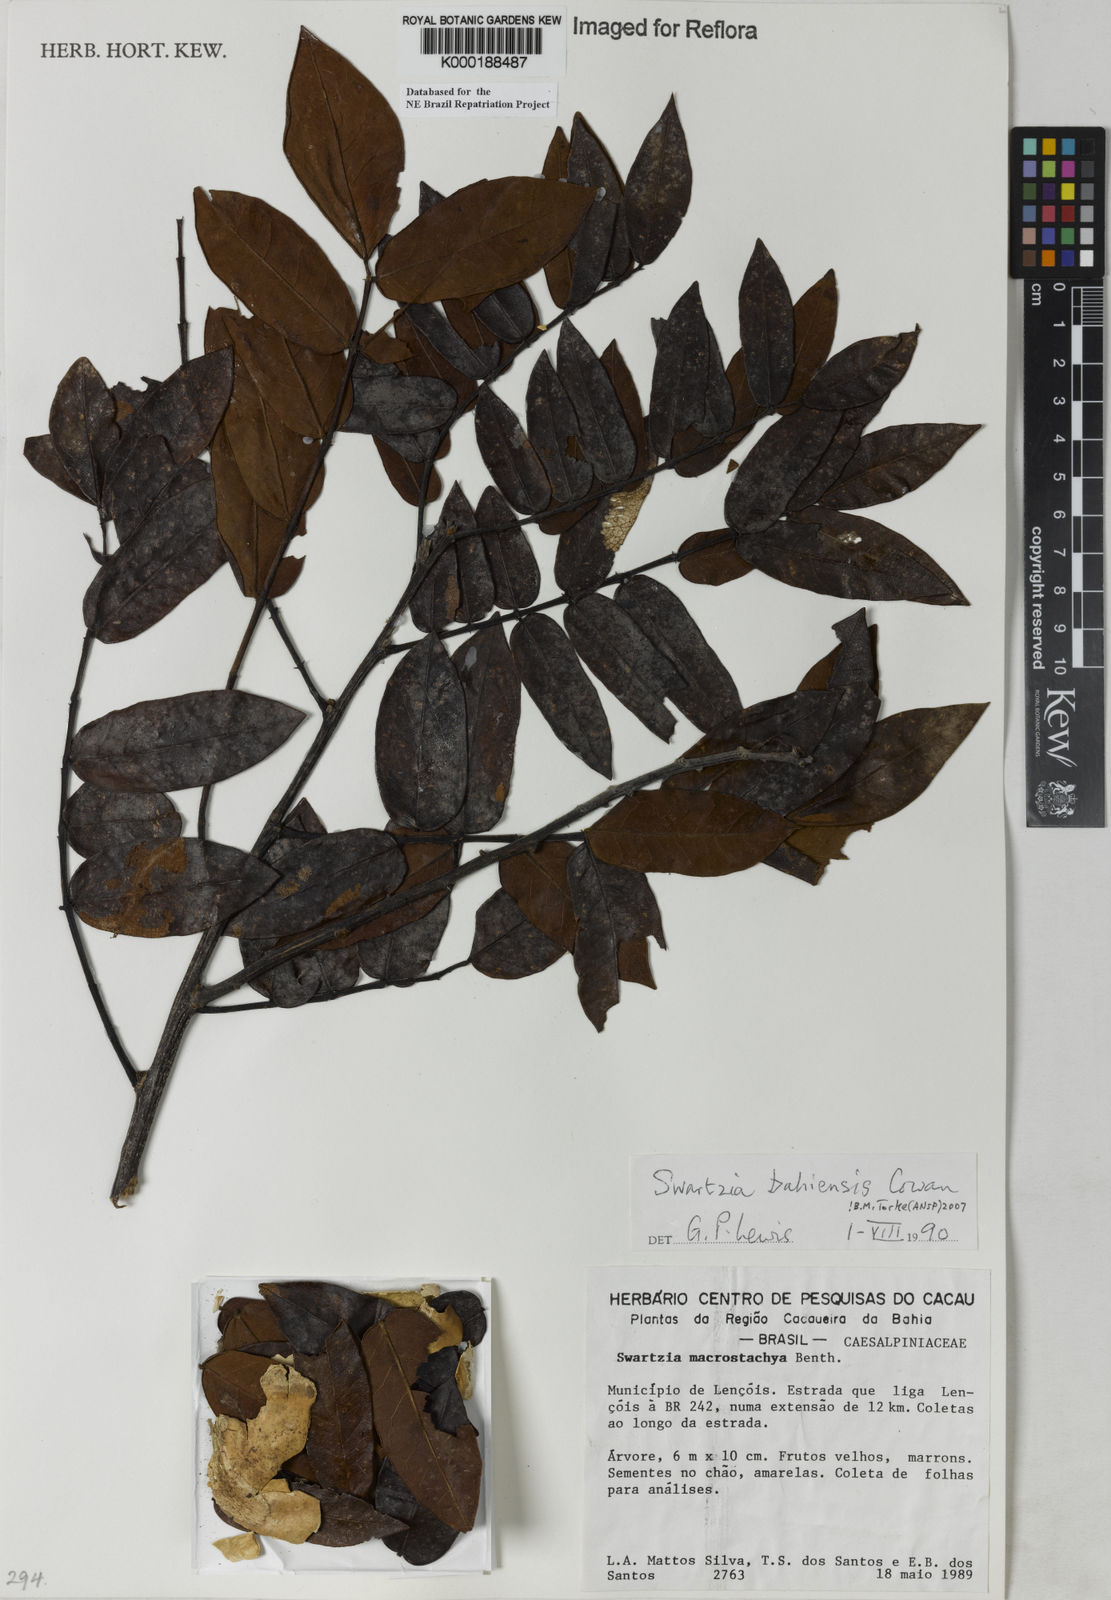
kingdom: Plantae
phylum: Tracheophyta
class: Magnoliopsida
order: Fabales
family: Fabaceae
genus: Swartzia
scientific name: Swartzia bahiensis
